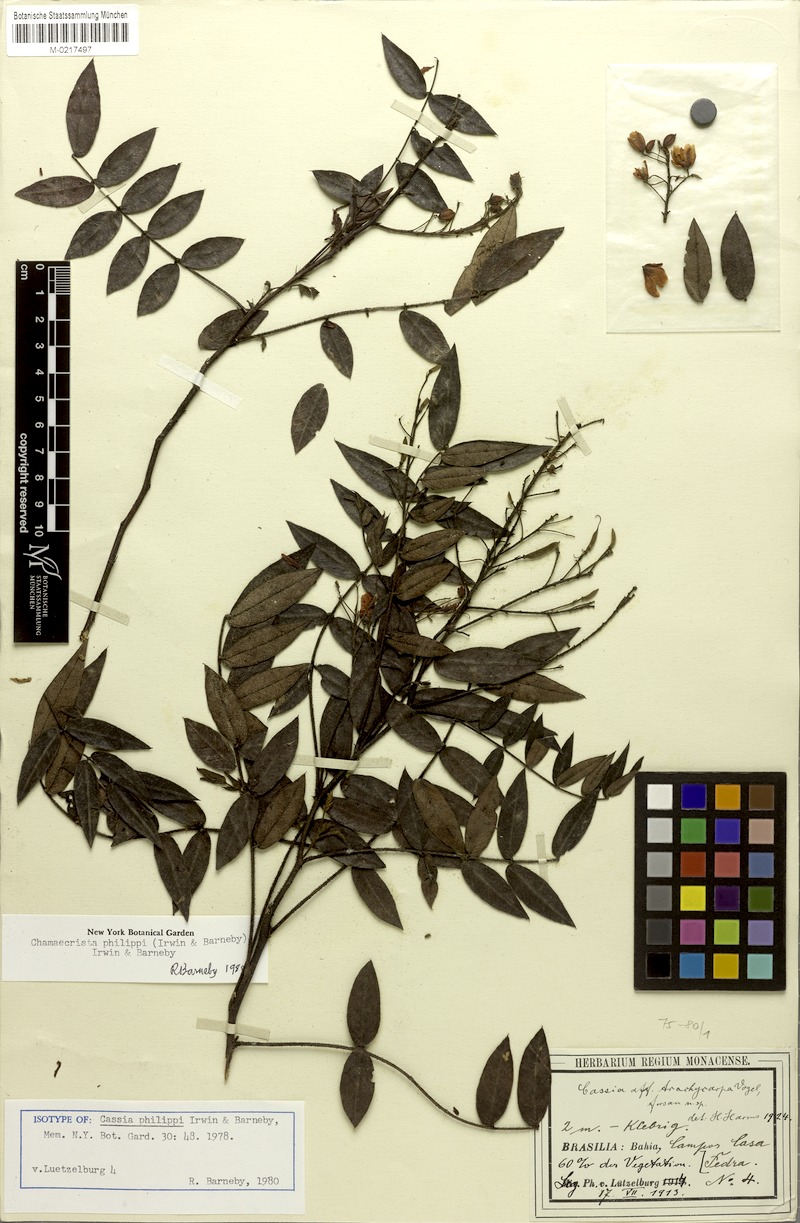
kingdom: Plantae
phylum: Tracheophyta
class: Magnoliopsida
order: Fabales
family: Fabaceae
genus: Chamaecrista
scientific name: Chamaecrista philippii
